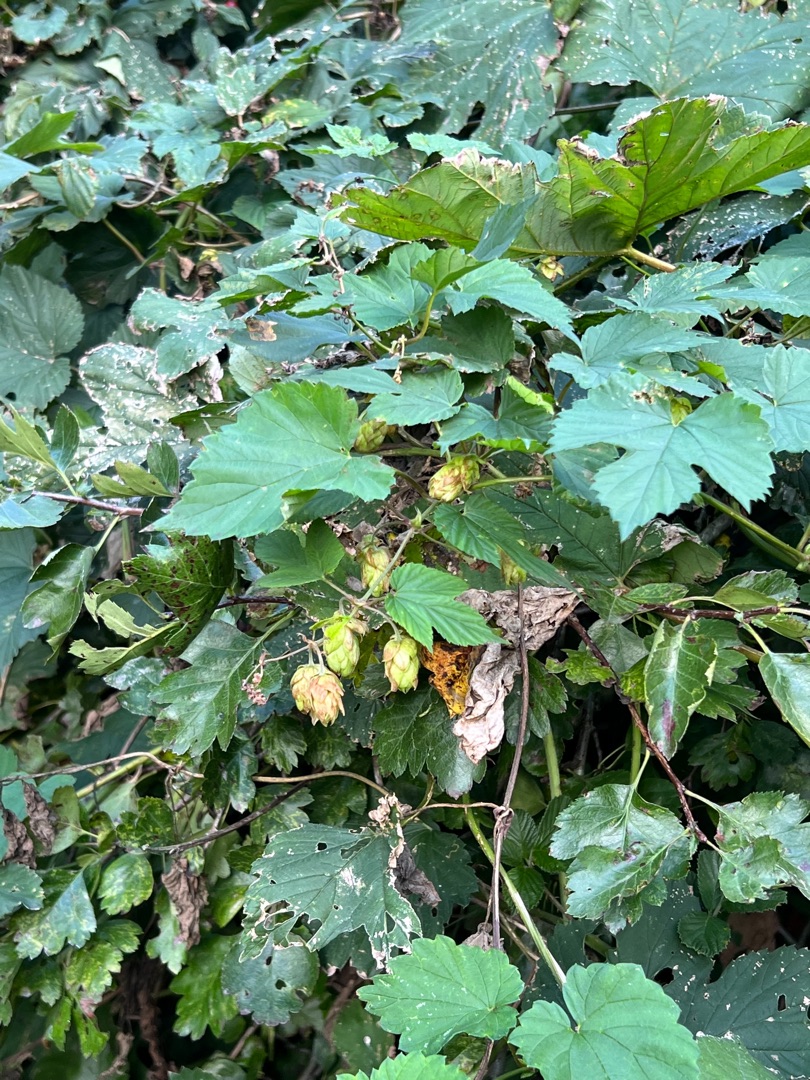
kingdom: Plantae
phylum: Tracheophyta
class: Magnoliopsida
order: Rosales
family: Cannabaceae
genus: Humulus
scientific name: Humulus lupulus
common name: Humle
